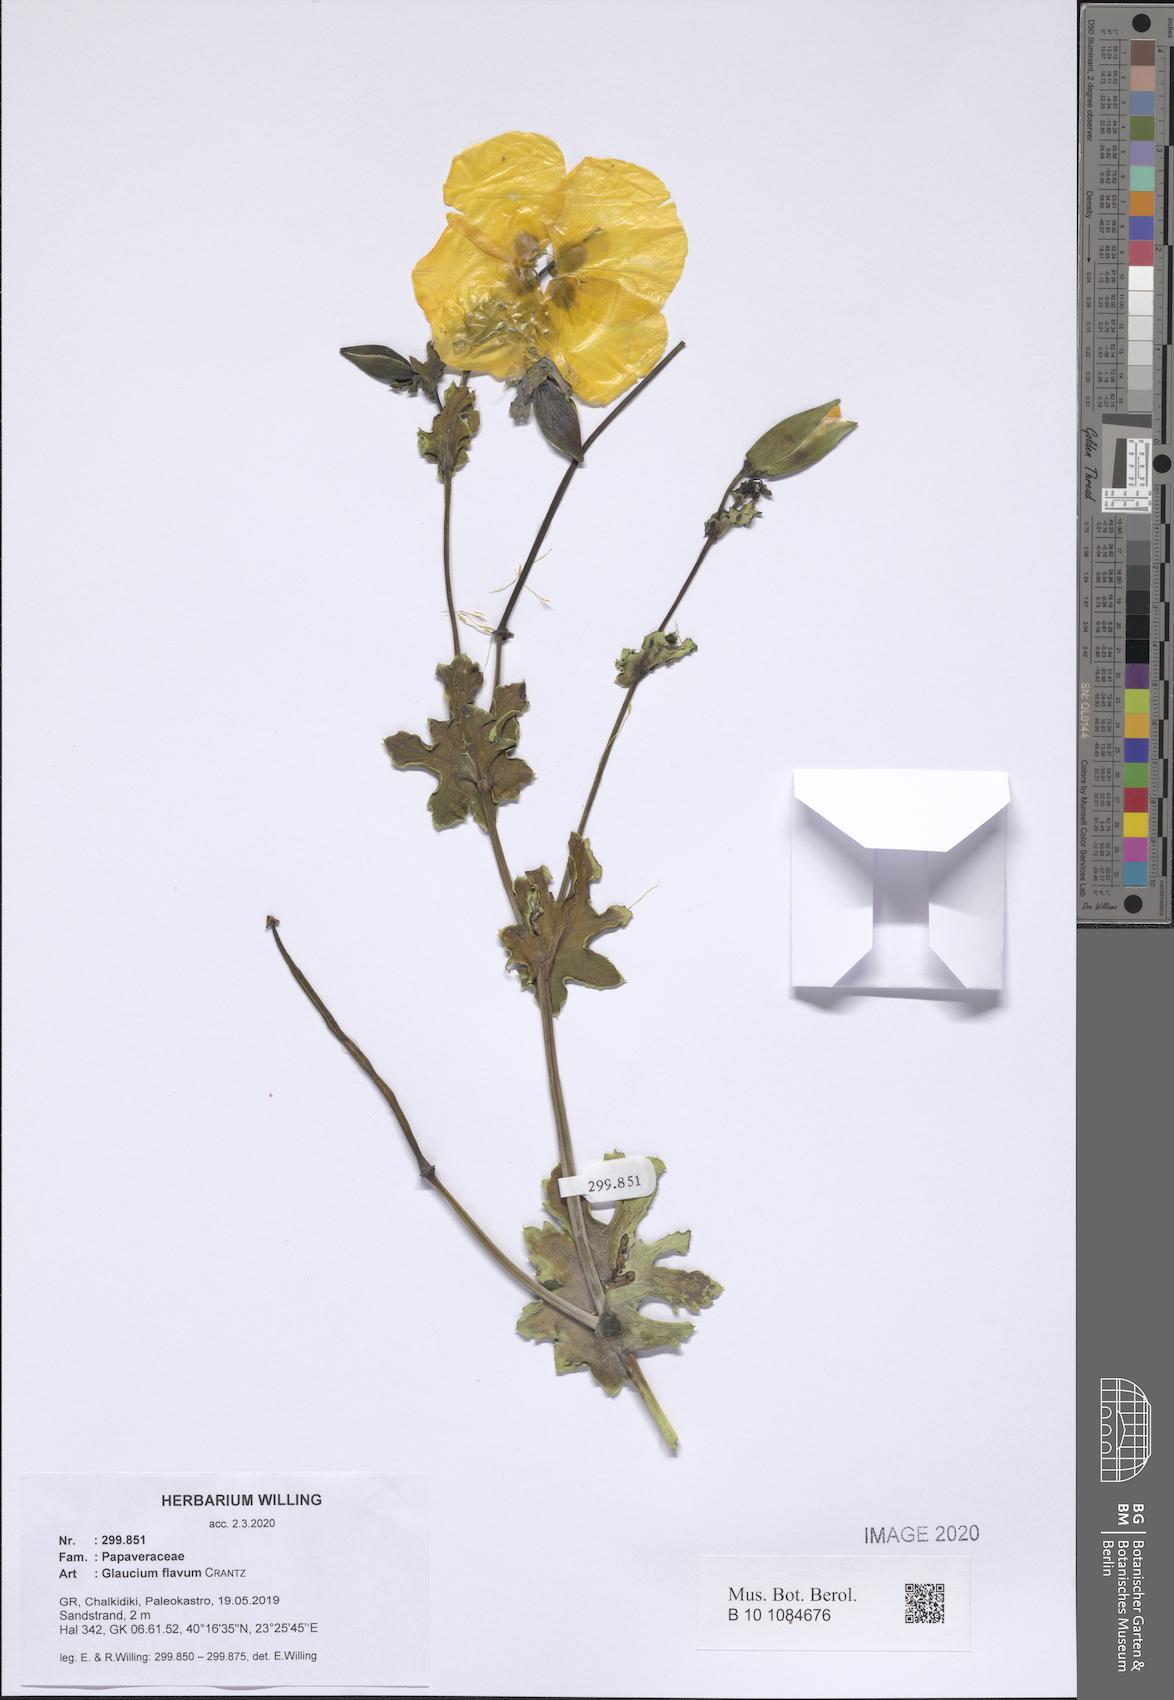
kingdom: Plantae
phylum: Tracheophyta
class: Magnoliopsida
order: Ranunculales
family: Papaveraceae
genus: Glaucium
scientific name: Glaucium flavum
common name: Yellow horned-poppy
